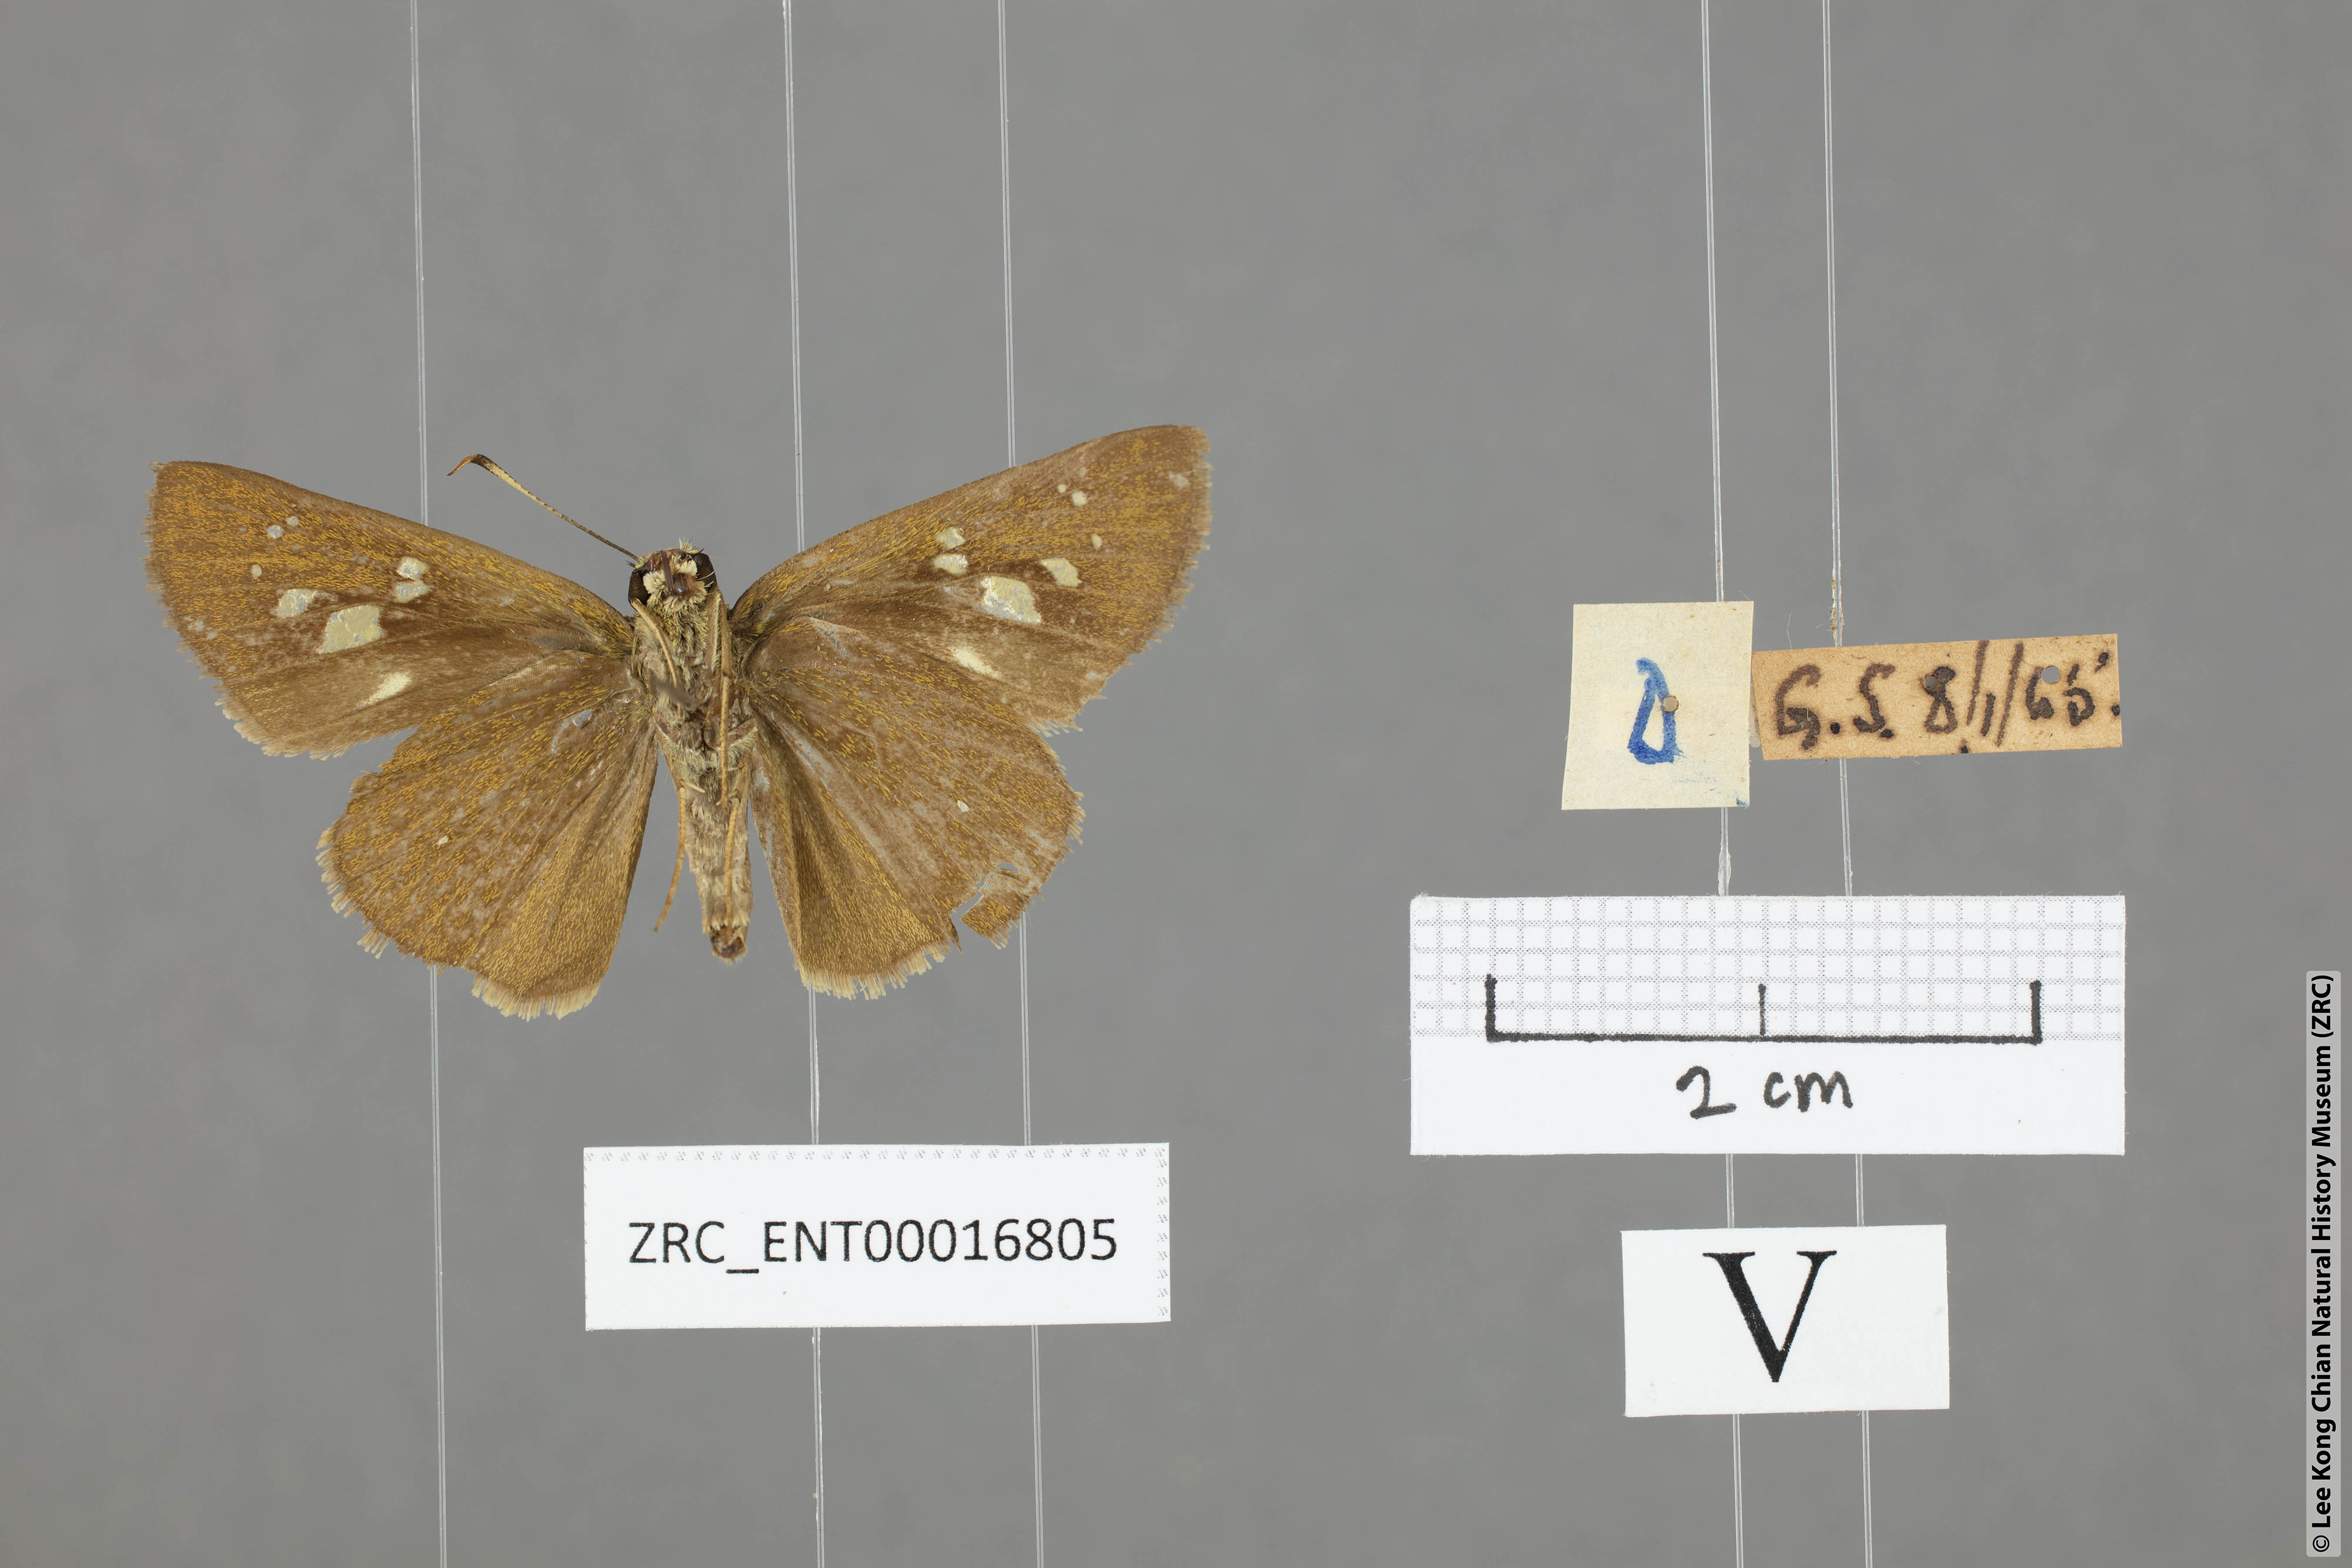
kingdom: Animalia
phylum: Arthropoda
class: Insecta
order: Lepidoptera
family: Hesperiidae
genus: Caltoris
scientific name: Caltoris bromus
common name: Colon swift
